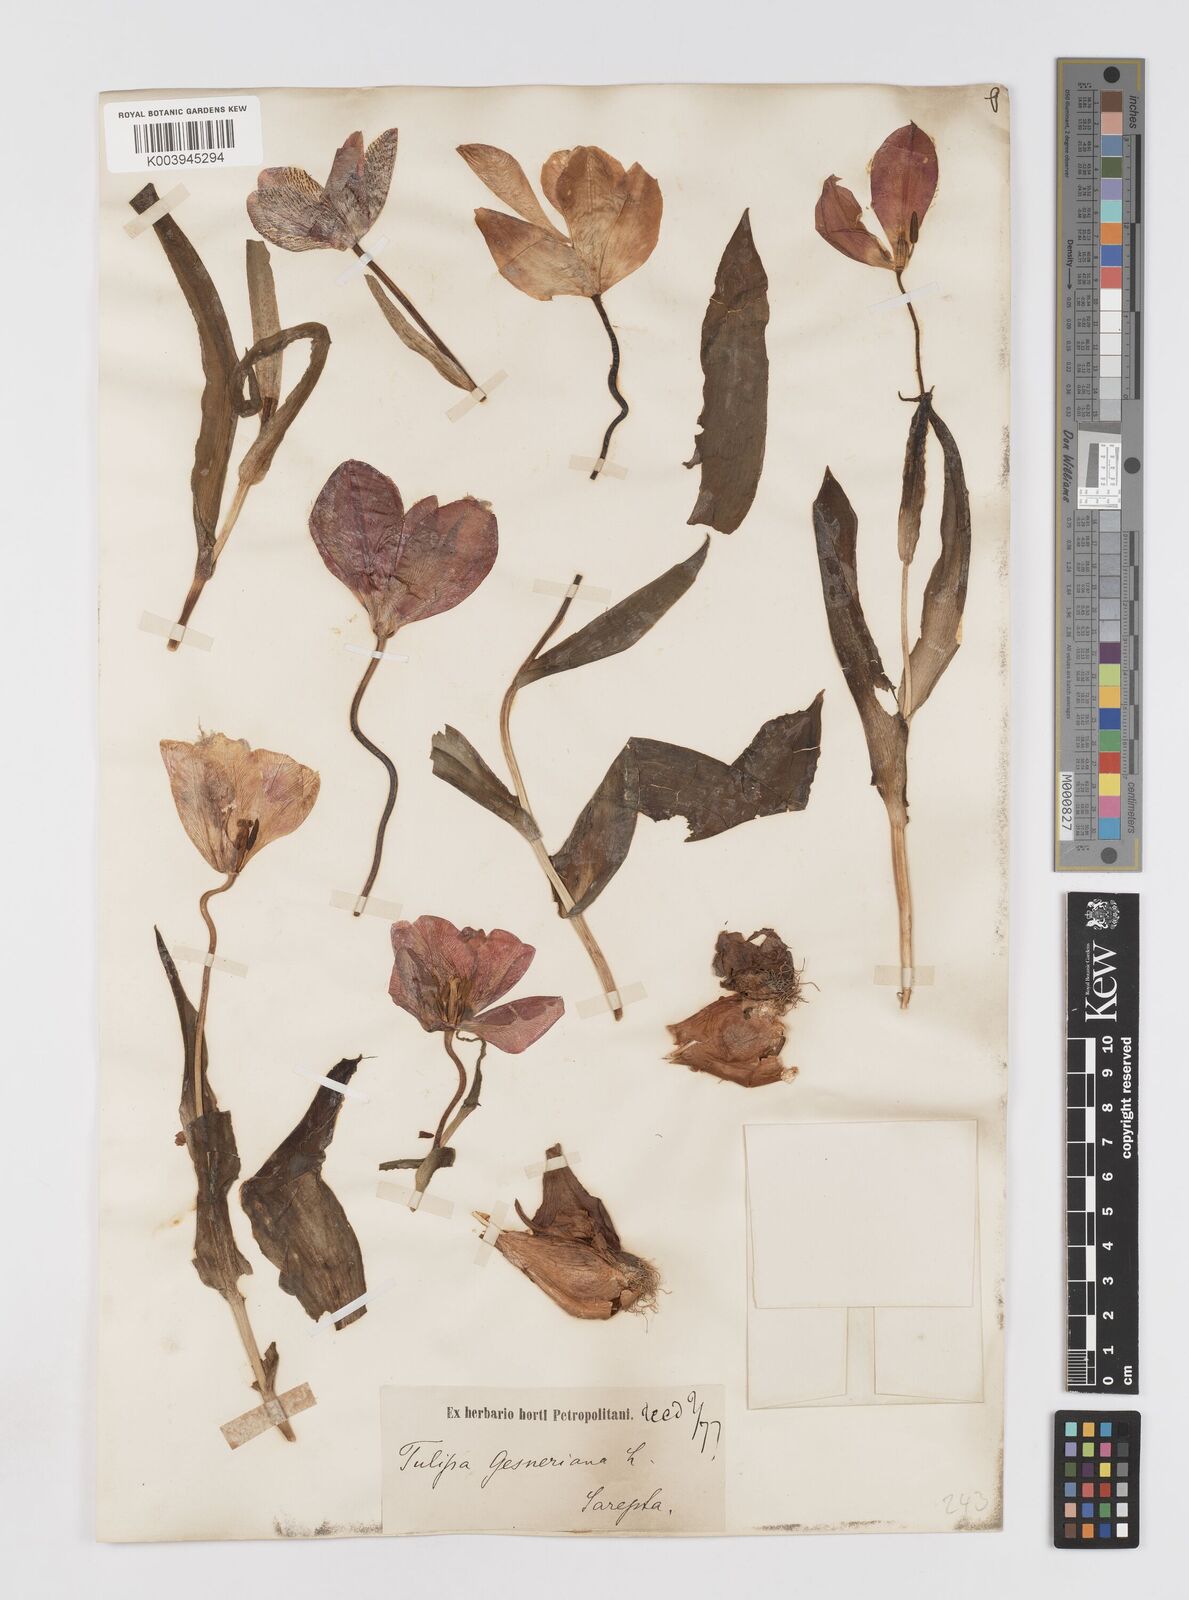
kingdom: Plantae
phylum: Tracheophyta
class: Liliopsida
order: Liliales
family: Liliaceae
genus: Tulipa
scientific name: Tulipa gesneriana
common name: Garden tulip
